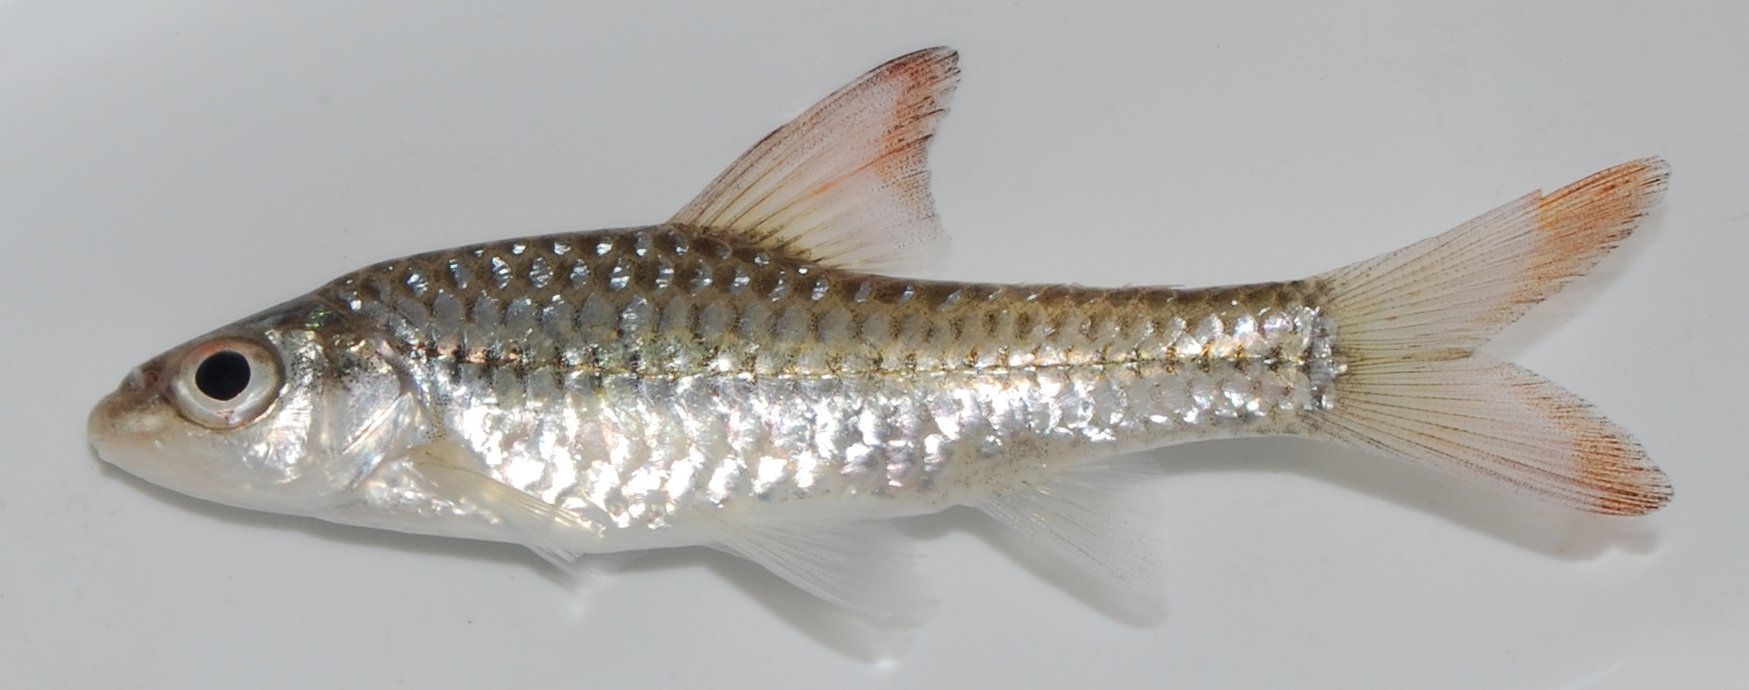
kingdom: Animalia
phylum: Chordata
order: Cypriniformes
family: Cyprinidae
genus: Enteromius
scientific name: Enteromius radiatus
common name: Beira barb
